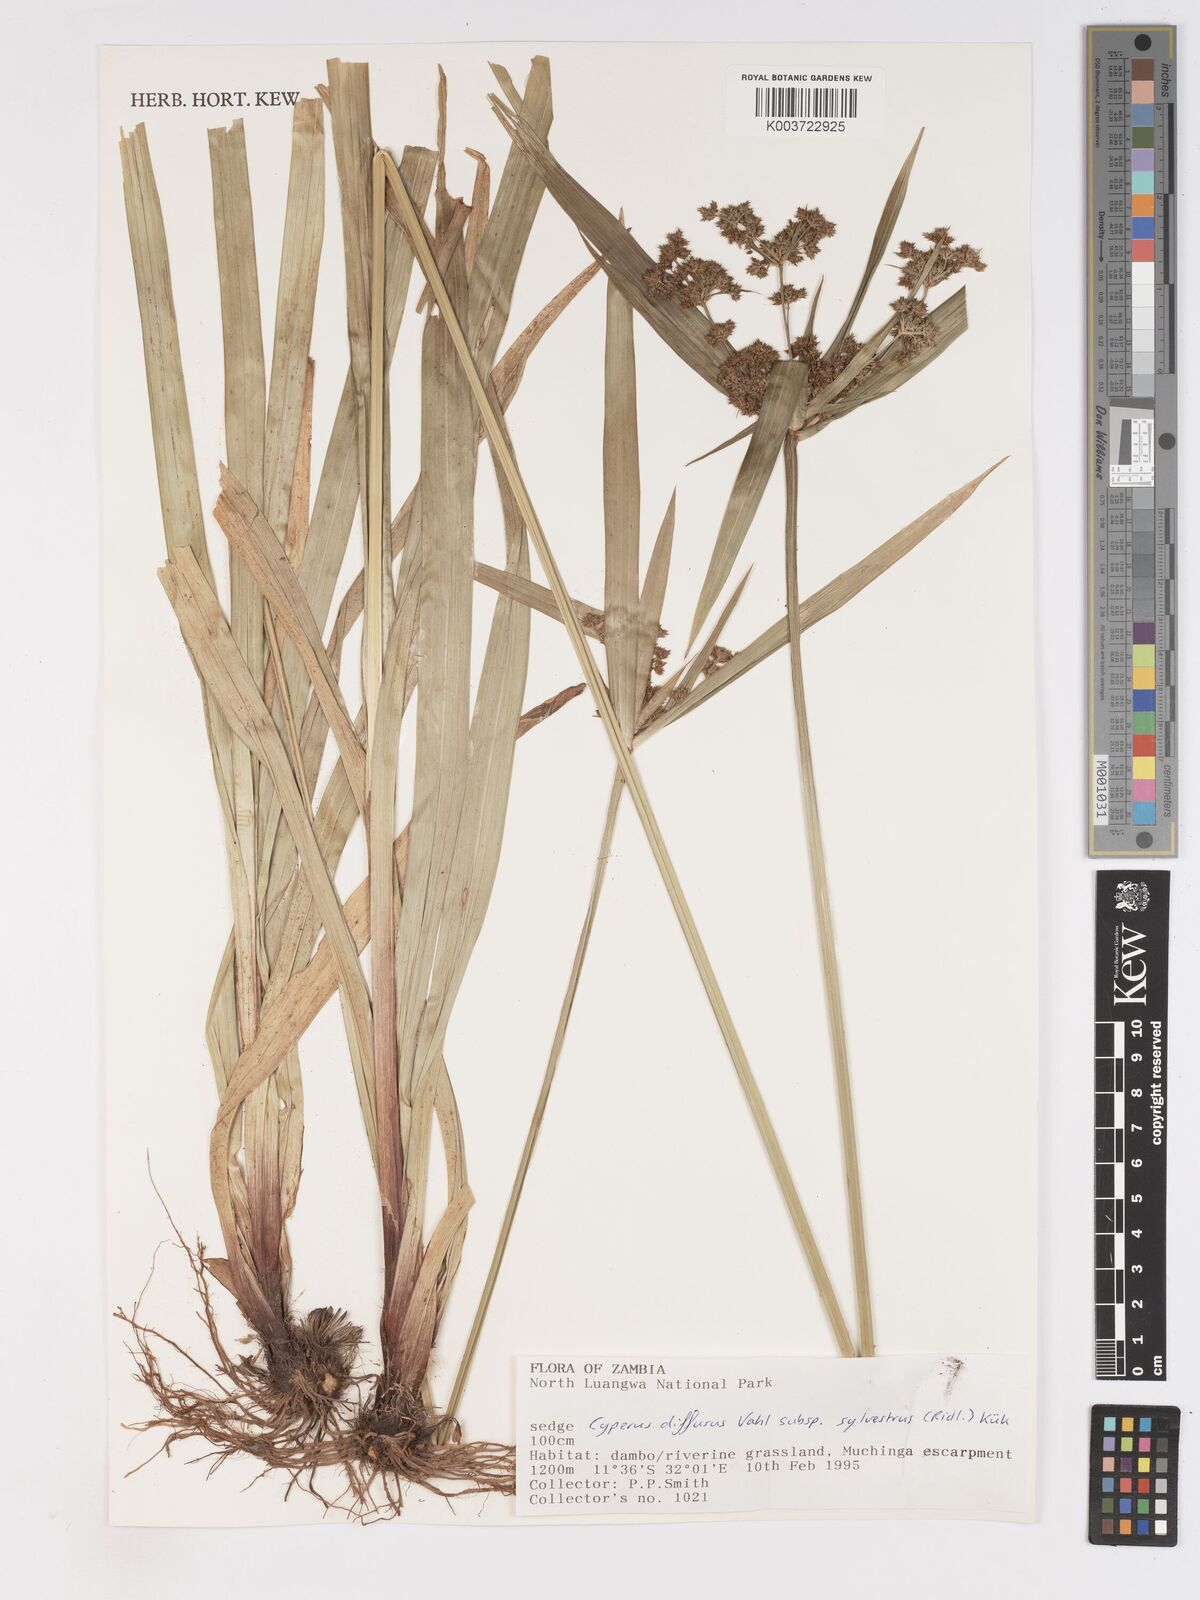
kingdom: Plantae
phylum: Tracheophyta
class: Liliopsida
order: Poales
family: Cyperaceae
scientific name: Cyperaceae
